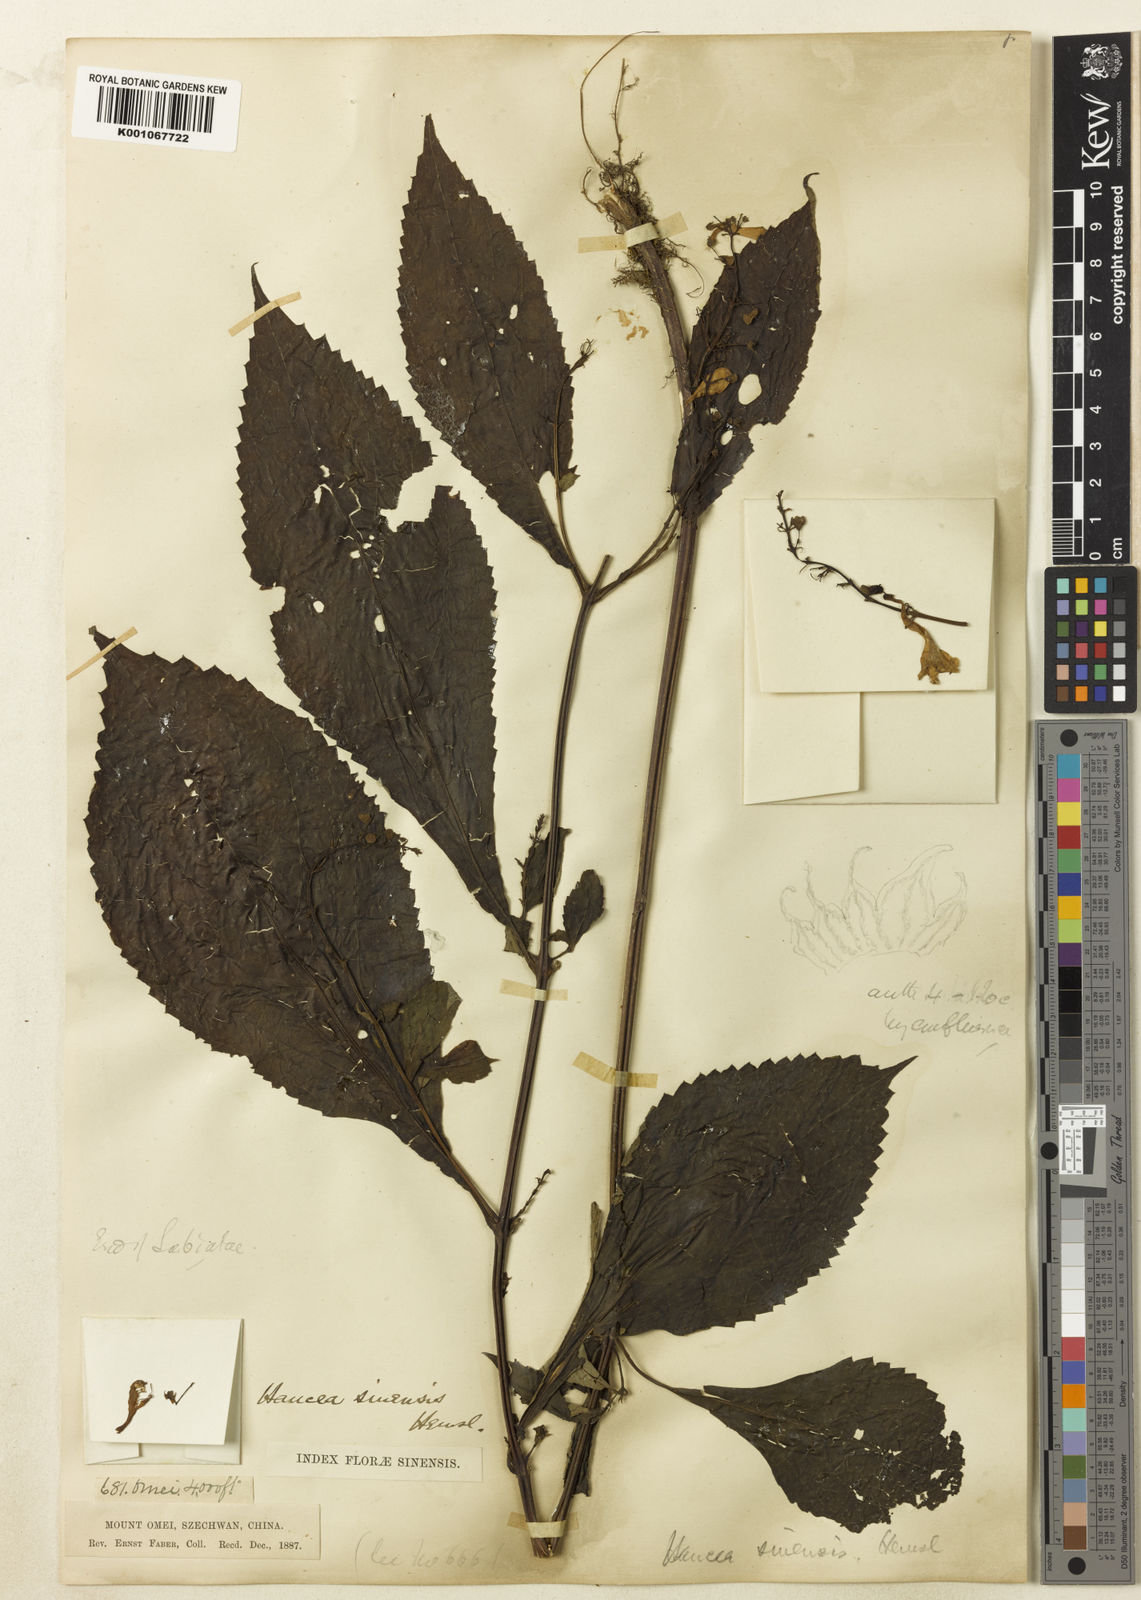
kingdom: Plantae
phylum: Tracheophyta
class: Magnoliopsida
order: Lamiales
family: Lamiaceae
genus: Hanceola
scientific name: Hanceola
